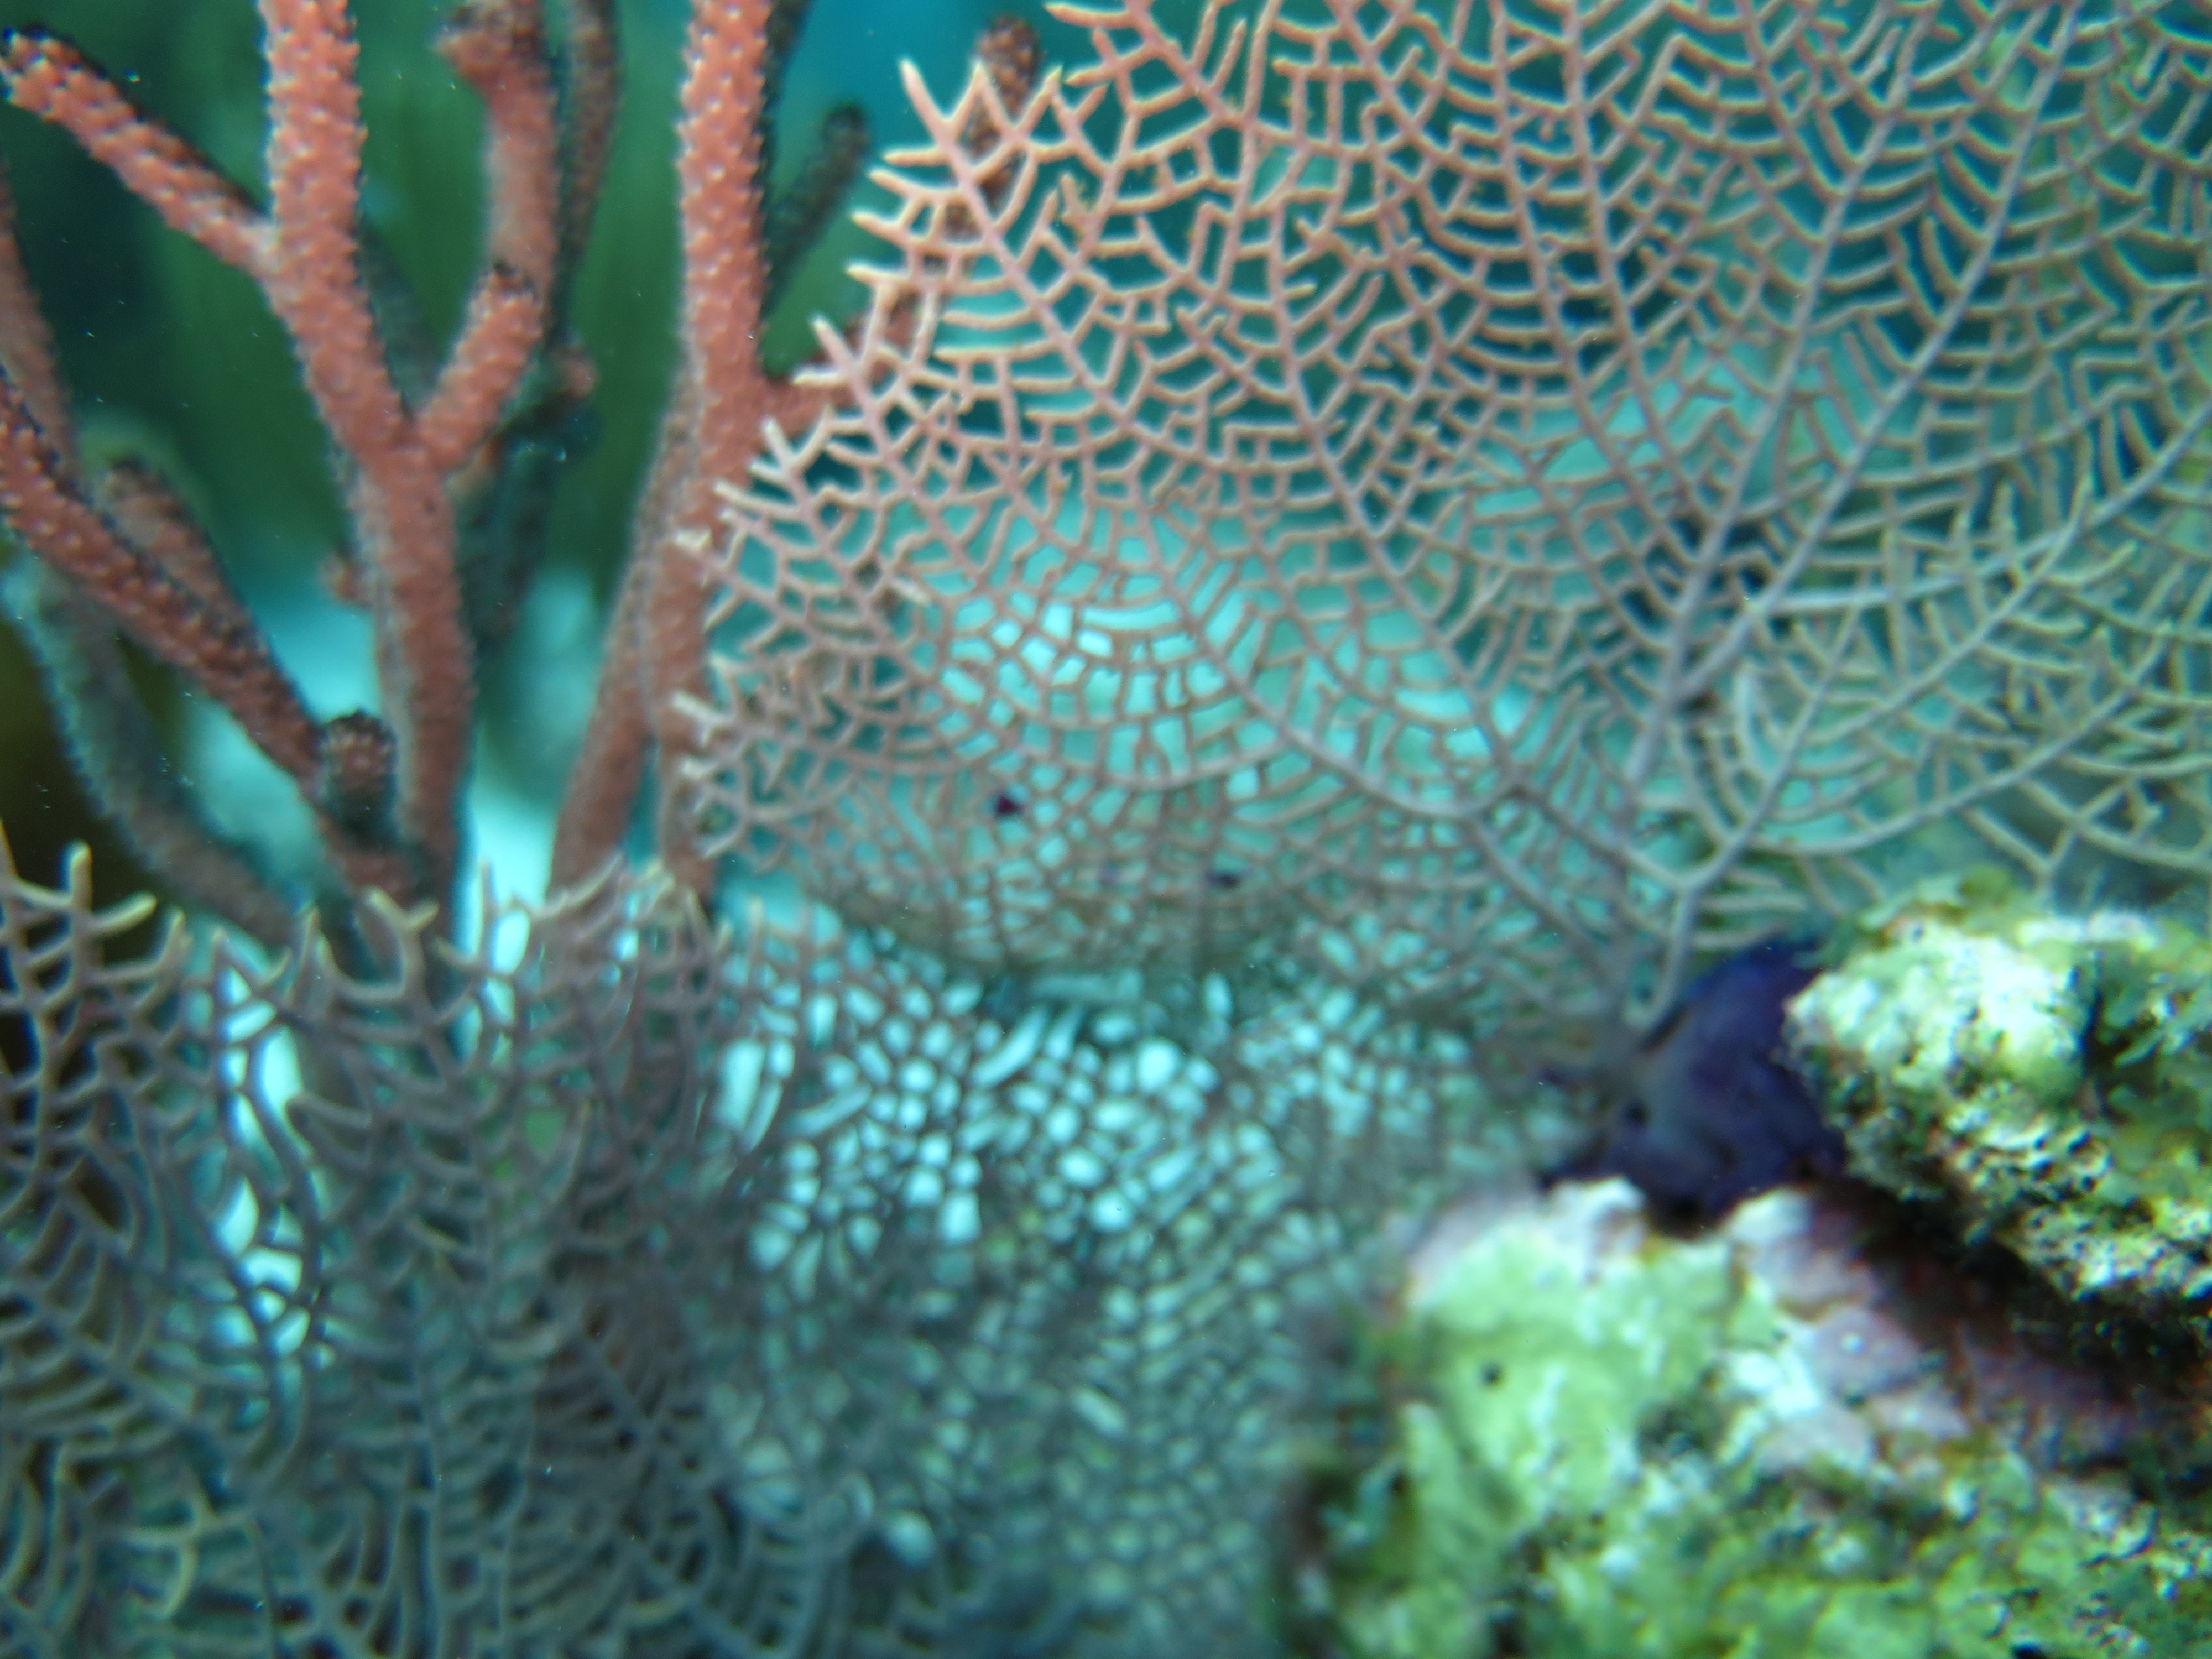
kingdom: Animalia
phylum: Cnidaria
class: Anthozoa
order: Malacalcyonacea
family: Gorgoniidae
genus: Gorgonia
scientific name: Gorgonia ventalina
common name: Common sea fan
